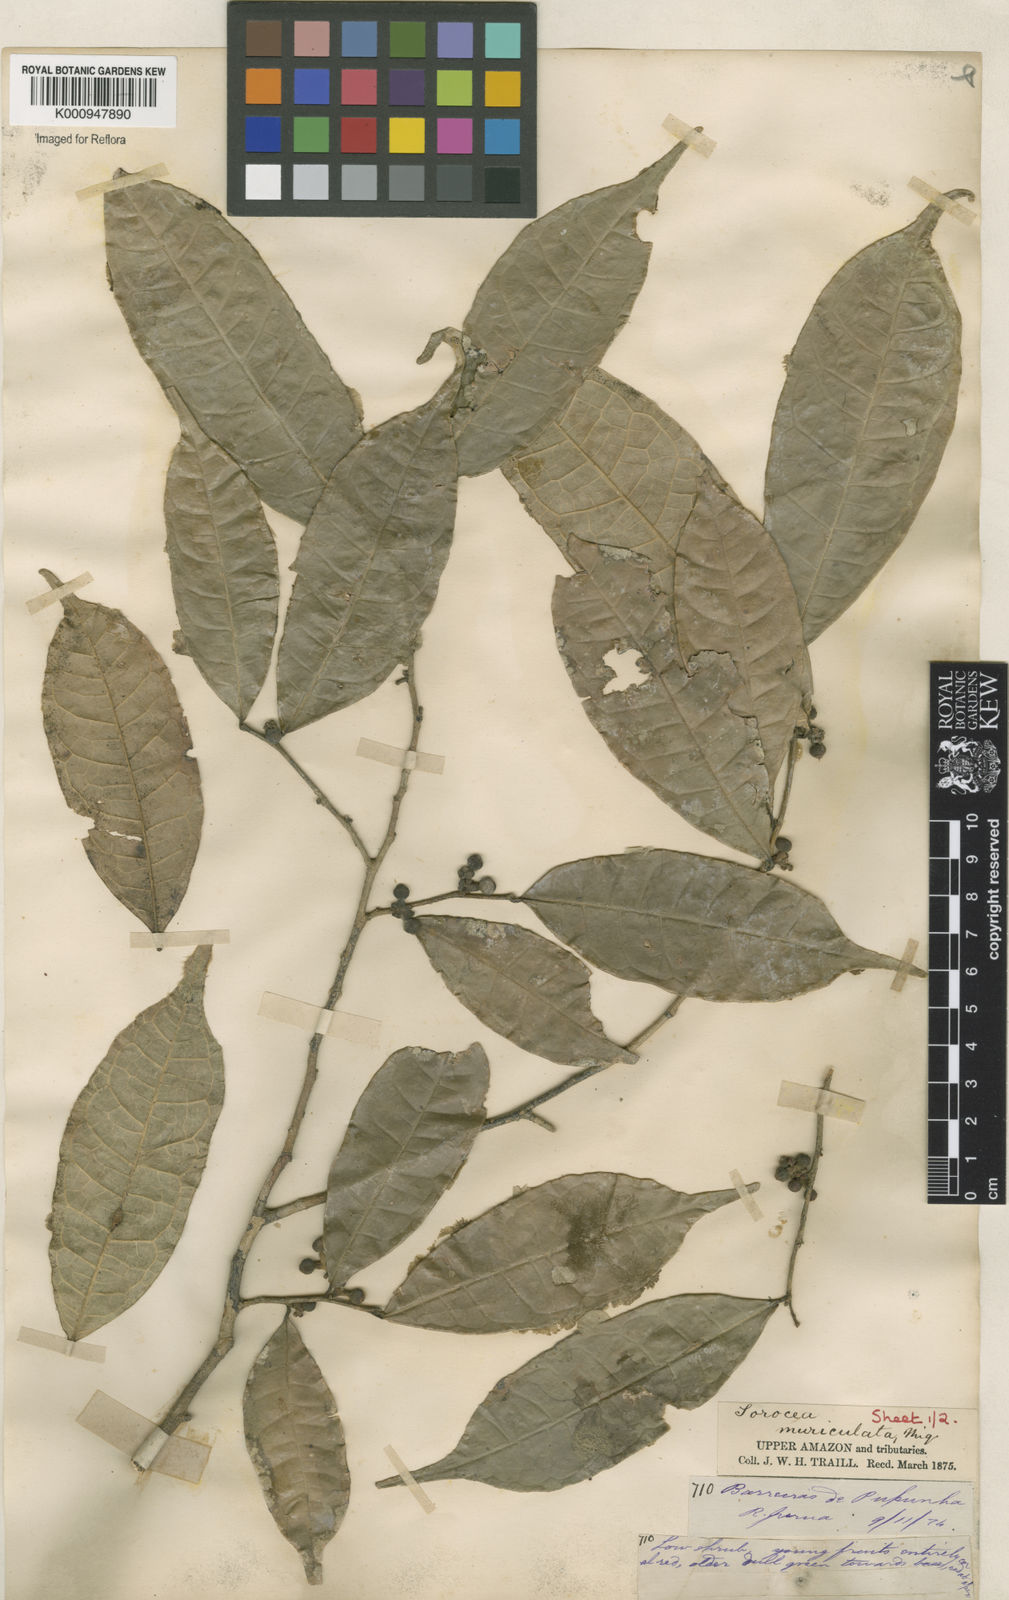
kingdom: Plantae
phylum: Tracheophyta
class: Magnoliopsida
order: Rosales
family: Moraceae
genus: Sorocea
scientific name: Sorocea muriculata
